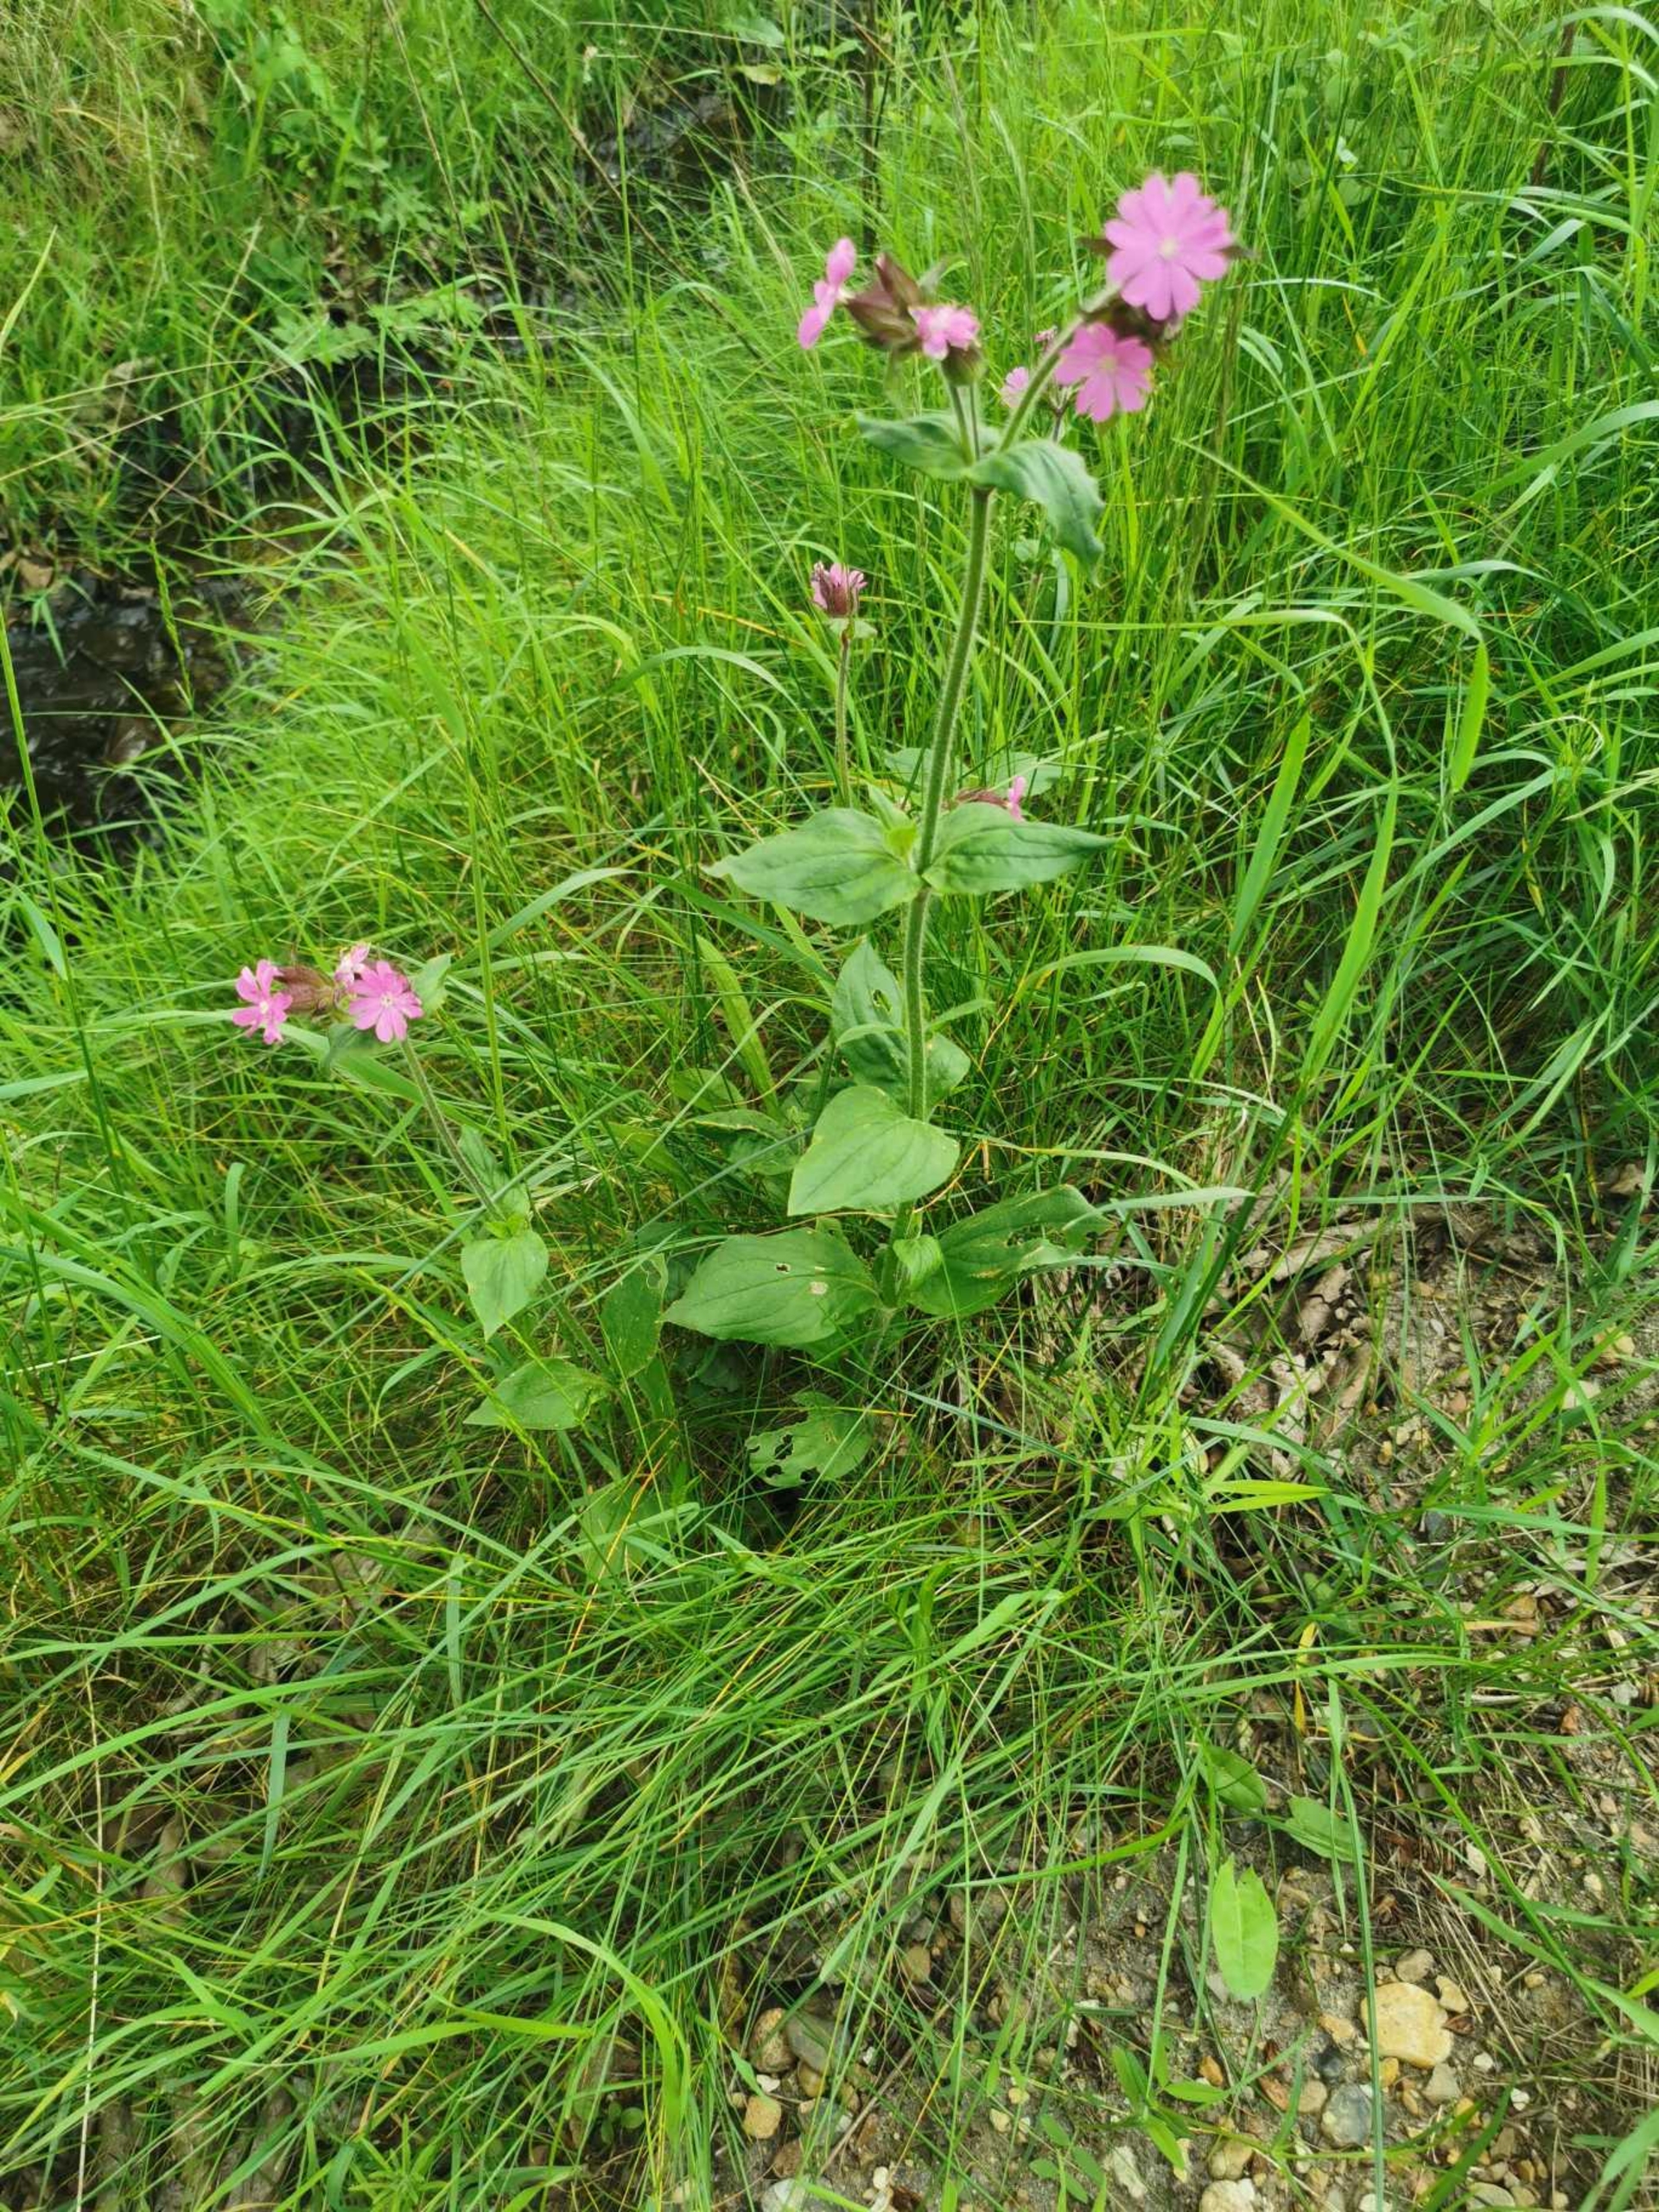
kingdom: Plantae
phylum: Tracheophyta
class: Magnoliopsida
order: Caryophyllales
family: Caryophyllaceae
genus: Silene
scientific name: Silene dioica
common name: Dagpragtstjerne
